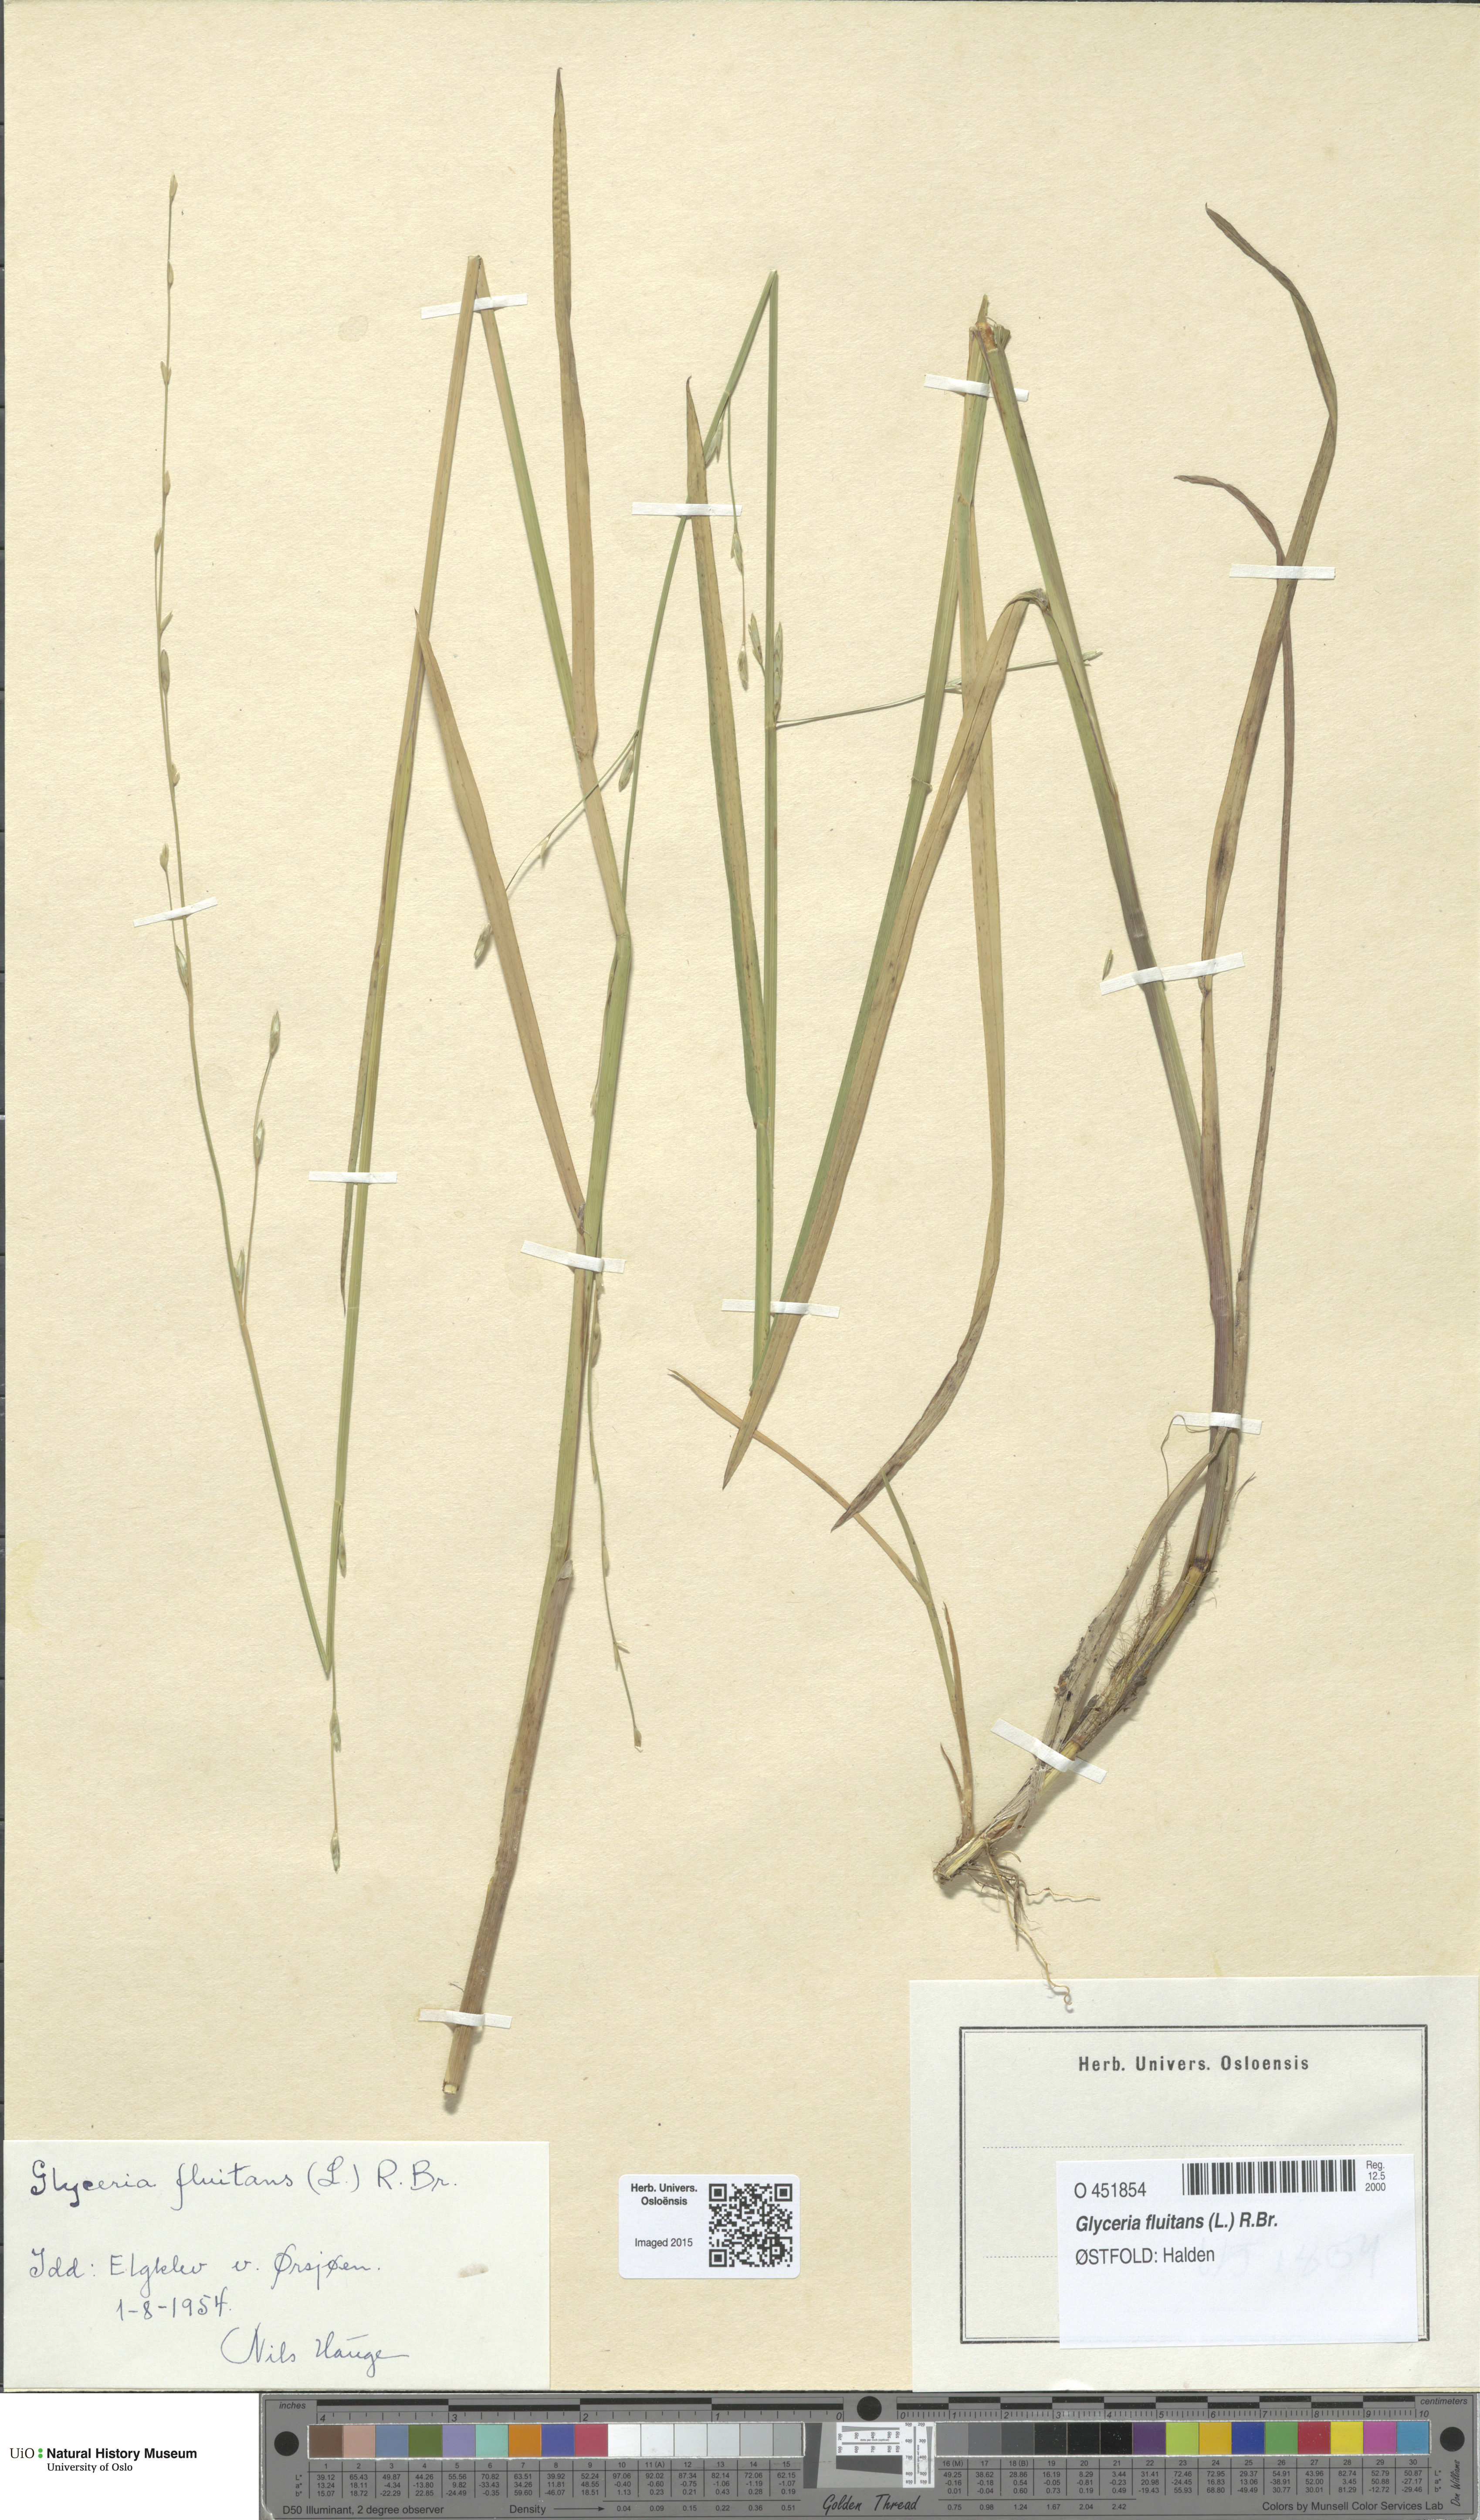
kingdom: Plantae
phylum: Tracheophyta
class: Liliopsida
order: Poales
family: Poaceae
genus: Glyceria
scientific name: Glyceria fluitans
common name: Floating sweet-grass
